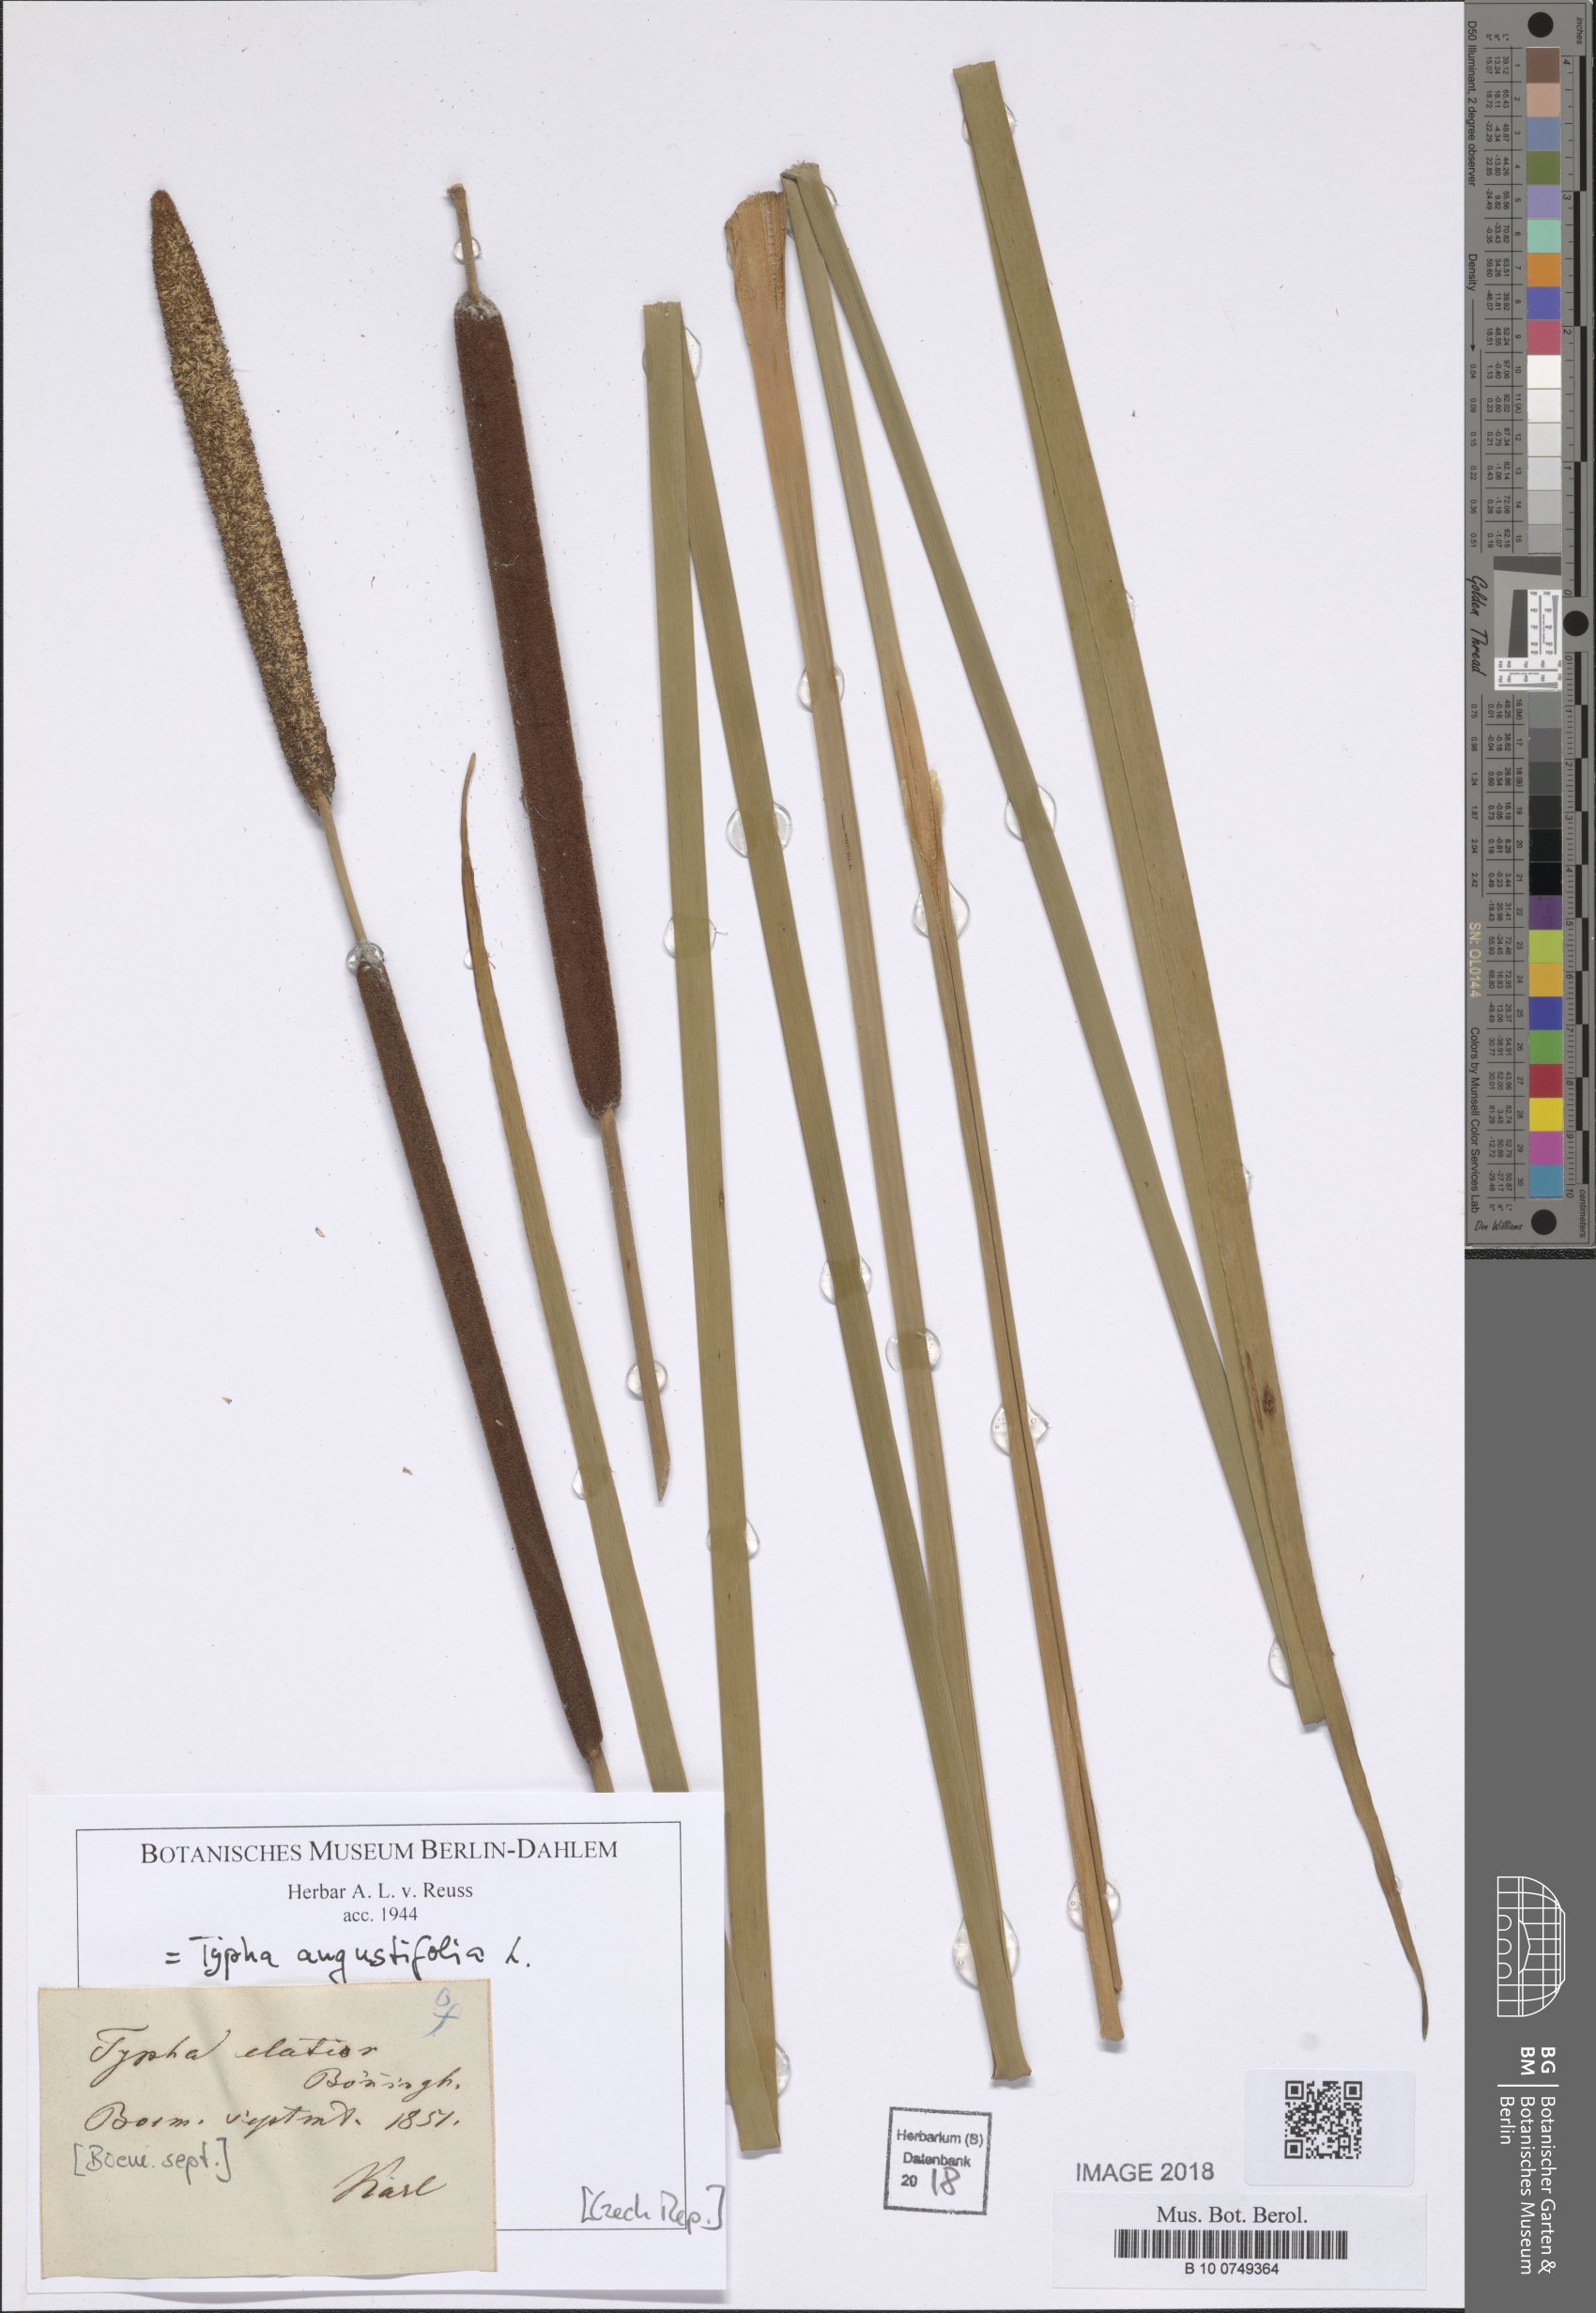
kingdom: Plantae
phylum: Tracheophyta
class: Liliopsida
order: Poales
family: Typhaceae
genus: Typha
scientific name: Typha angustifolia
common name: Lesser bulrush
